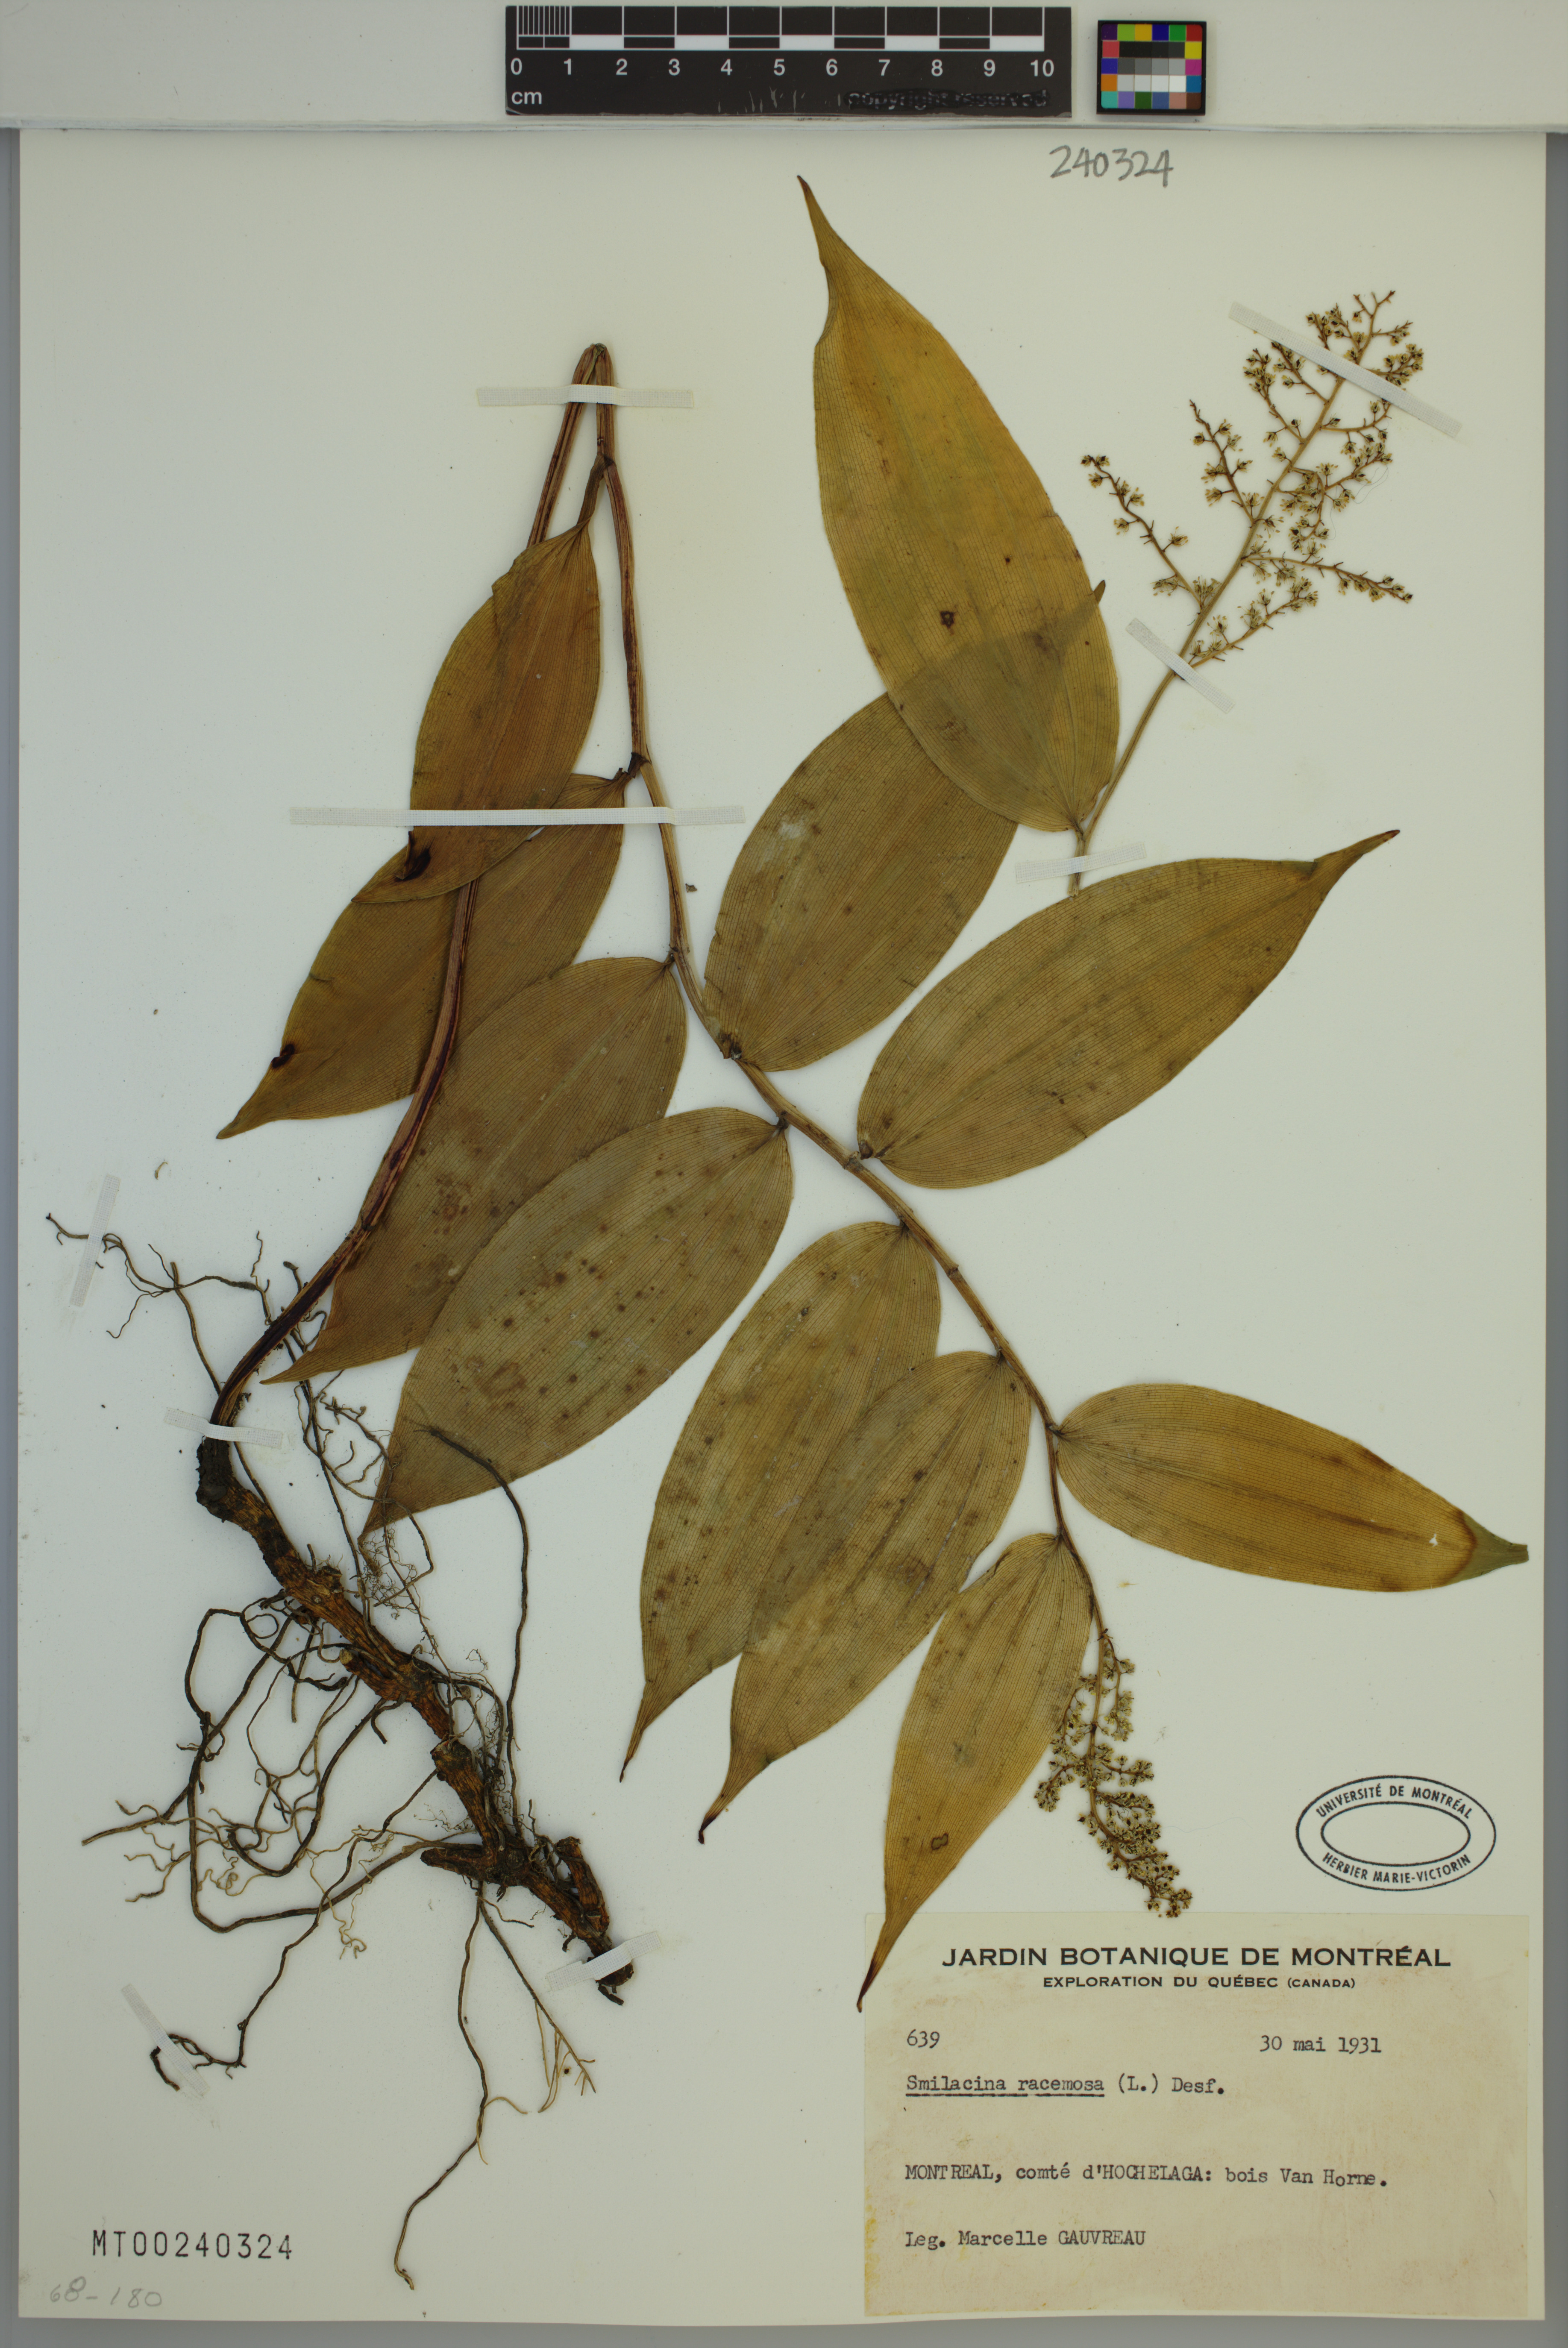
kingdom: Plantae
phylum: Tracheophyta
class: Liliopsida
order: Asparagales
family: Asparagaceae
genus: Maianthemum
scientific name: Maianthemum racemosum
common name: False spikenard
